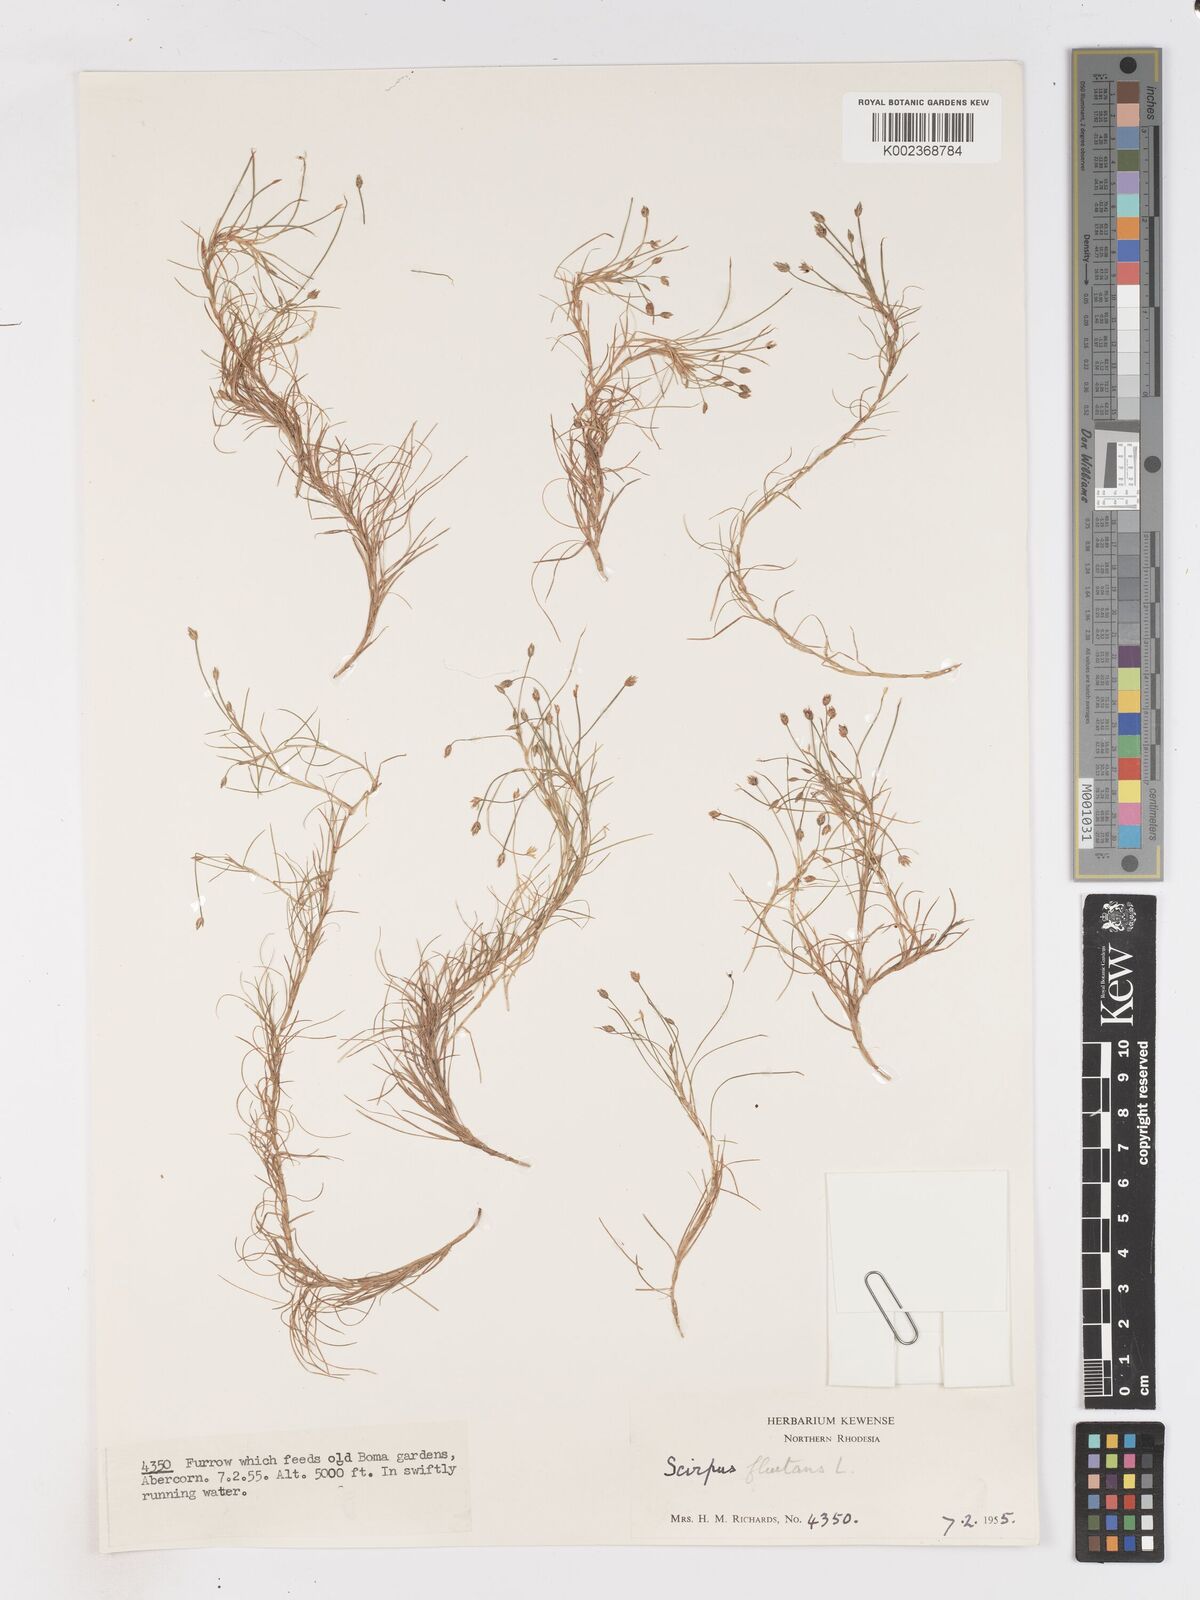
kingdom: Plantae
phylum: Tracheophyta
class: Liliopsida
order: Poales
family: Cyperaceae
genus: Isolepis
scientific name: Isolepis fluitans
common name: Floating club-rush
